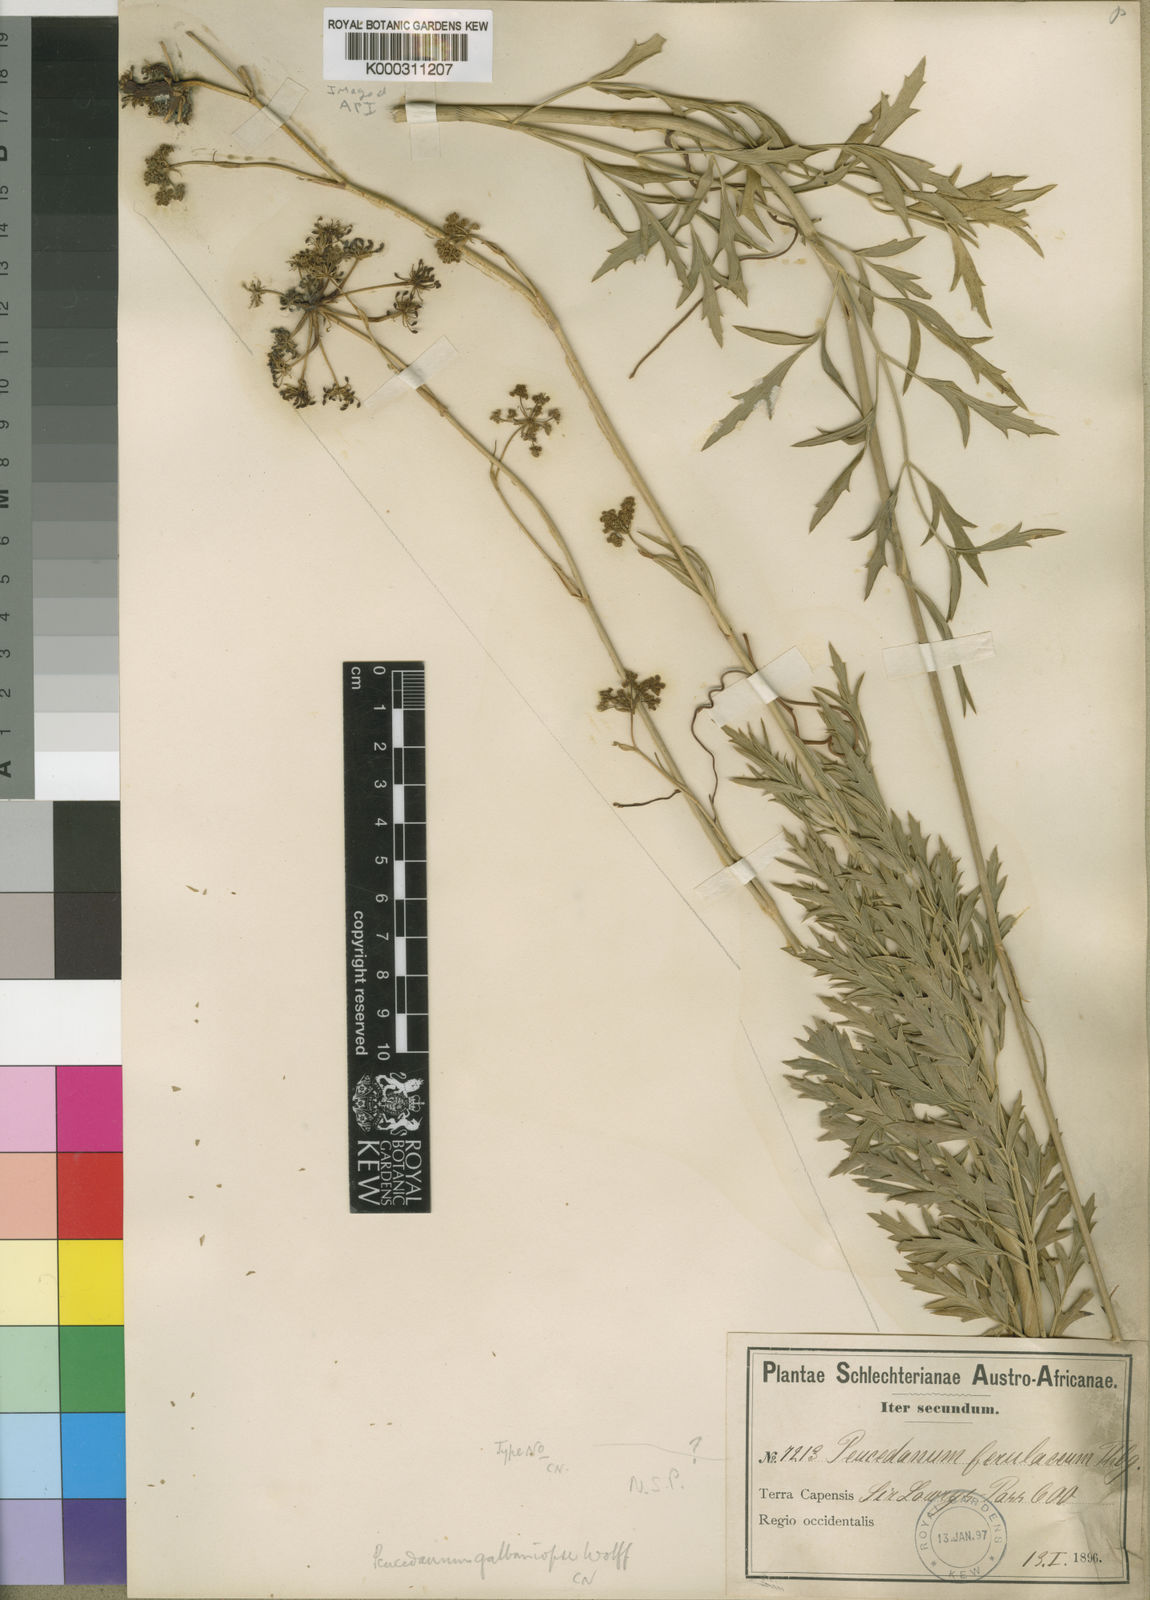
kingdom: Plantae
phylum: Tracheophyta
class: Magnoliopsida
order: Apiales
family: Apiaceae
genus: Notobubon
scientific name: Notobubon galbaniopse
